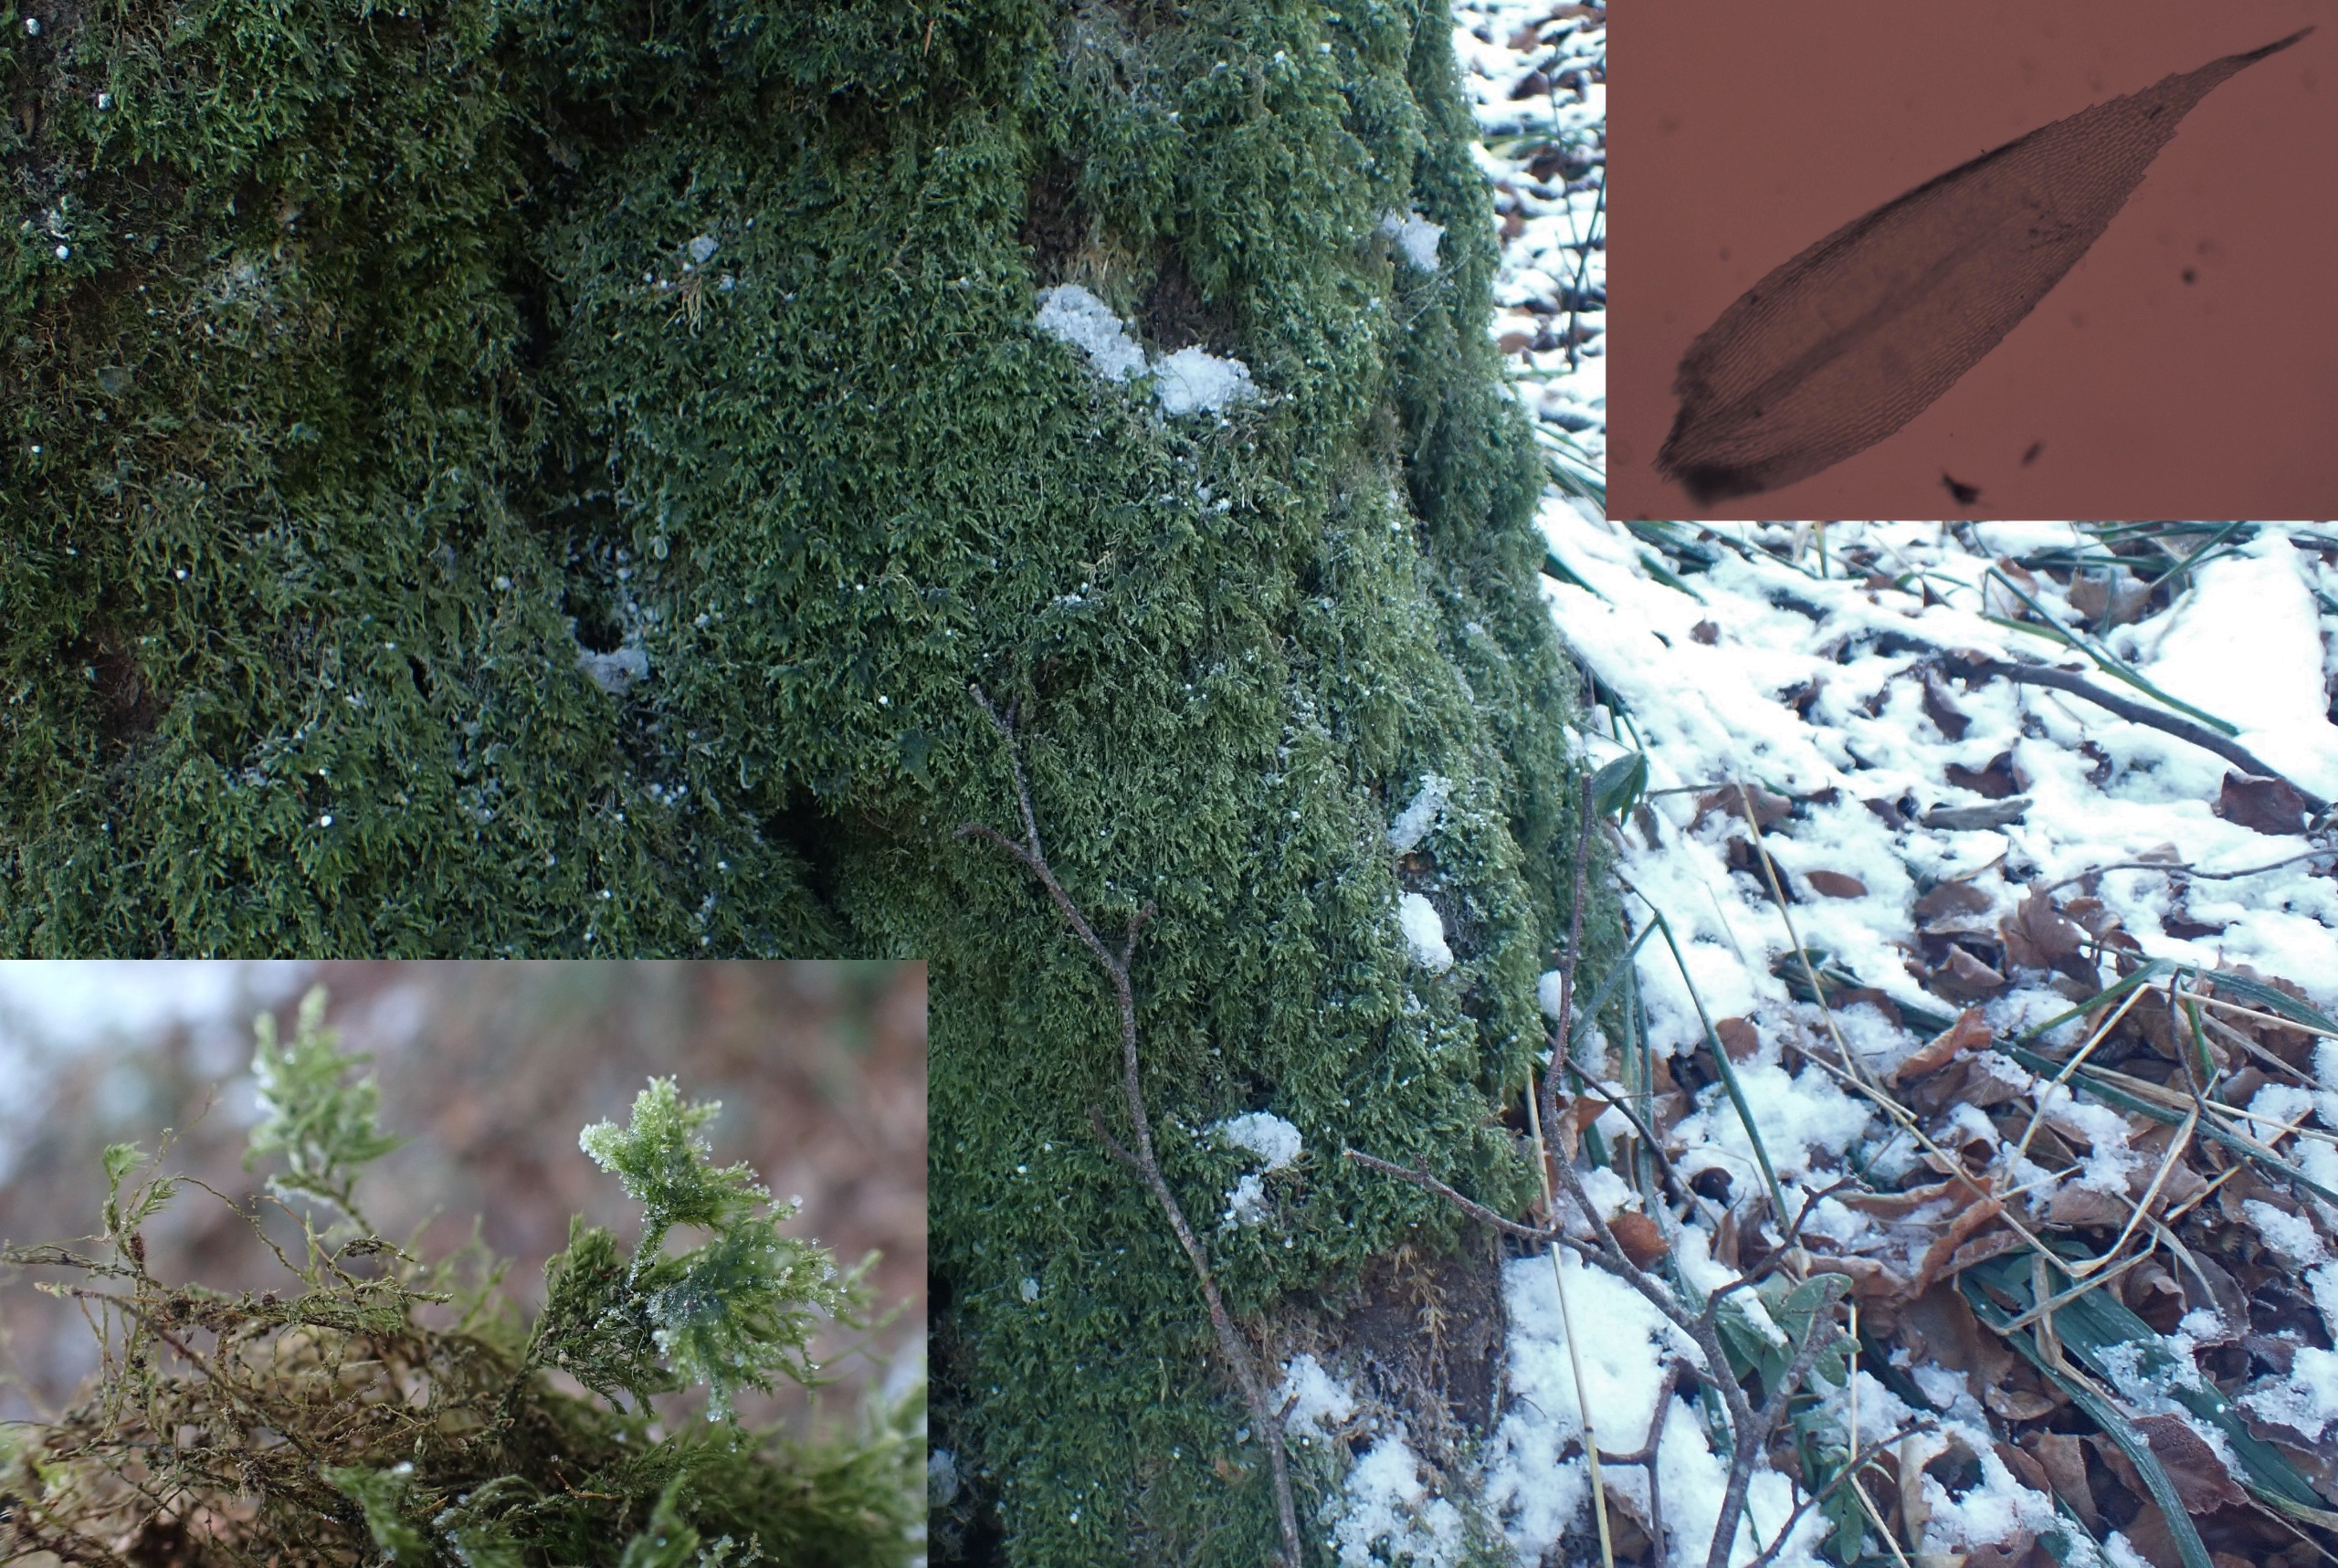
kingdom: Plantae
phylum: Bryophyta
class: Bryopsida
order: Hypnales
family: Lembophyllaceae
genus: Pseudisothecium
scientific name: Pseudisothecium myosuroides
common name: Slank stammemos
